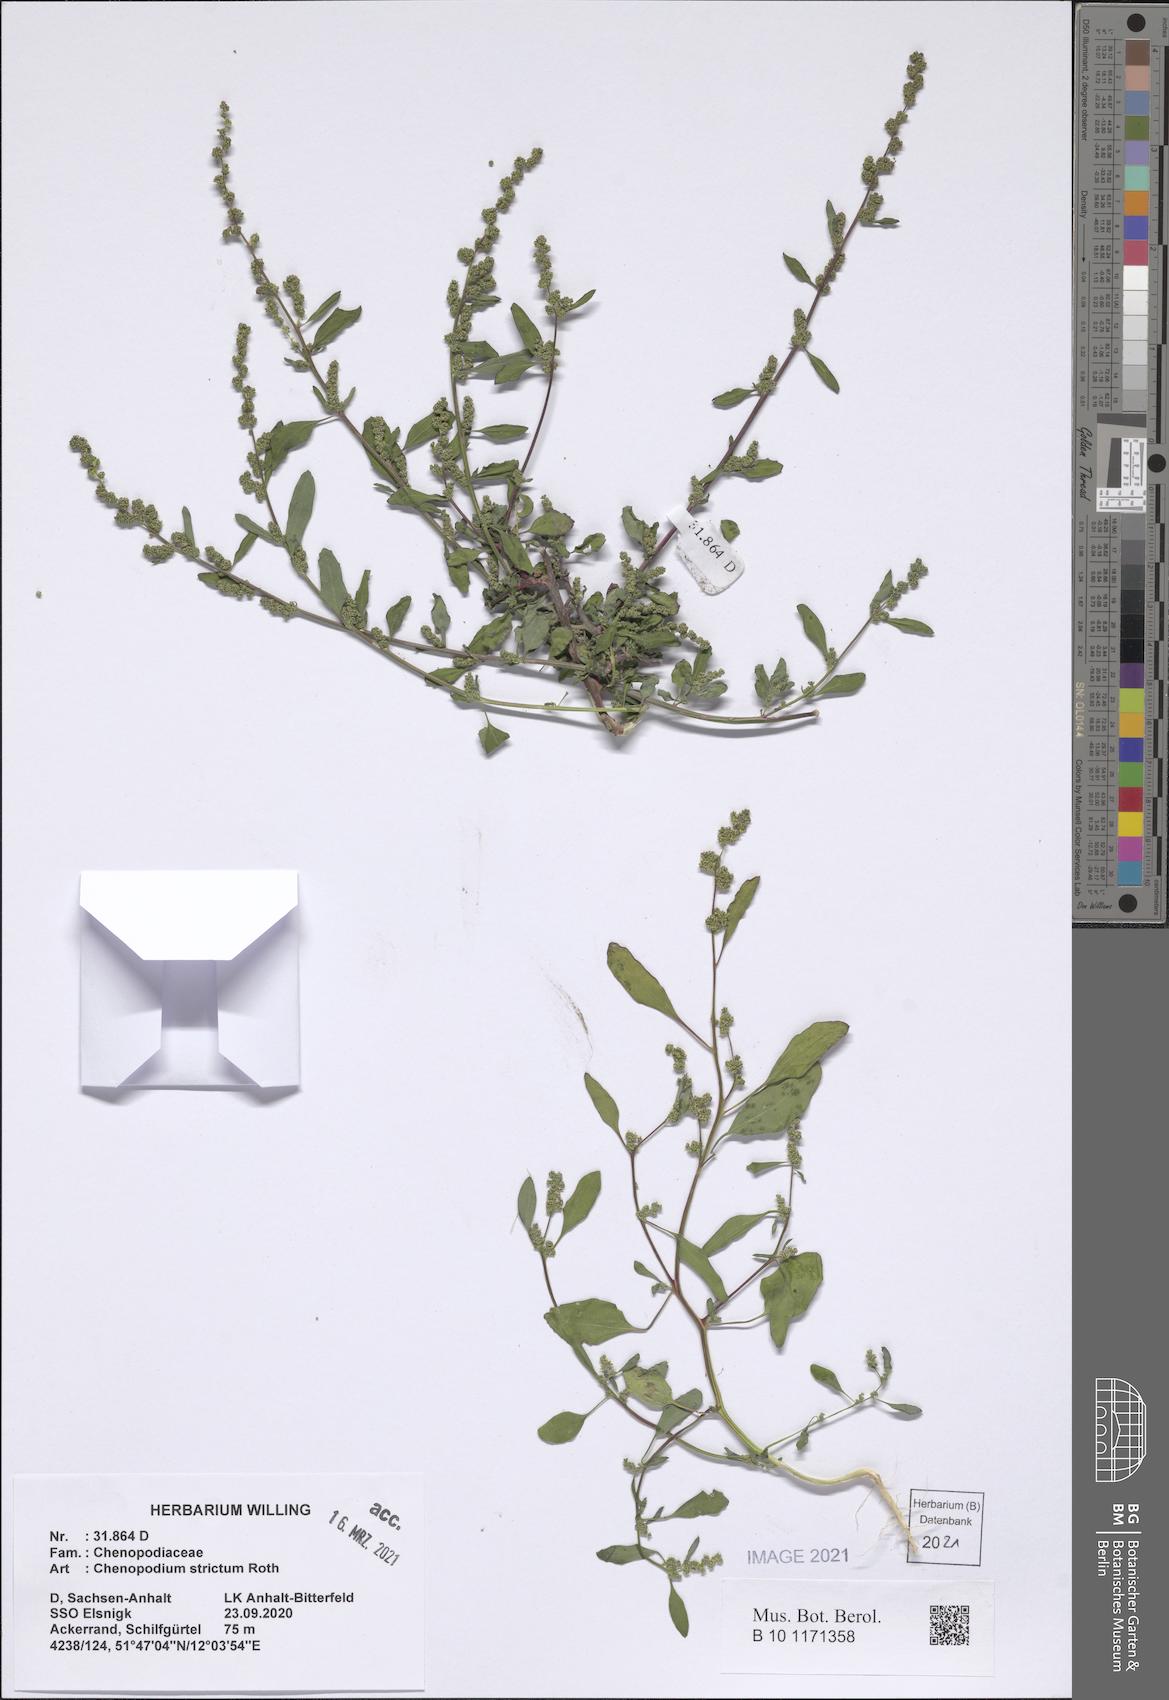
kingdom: Plantae
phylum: Tracheophyta
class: Magnoliopsida
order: Caryophyllales
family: Amaranthaceae
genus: Chenopodium
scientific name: Chenopodium album
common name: Fat-hen
